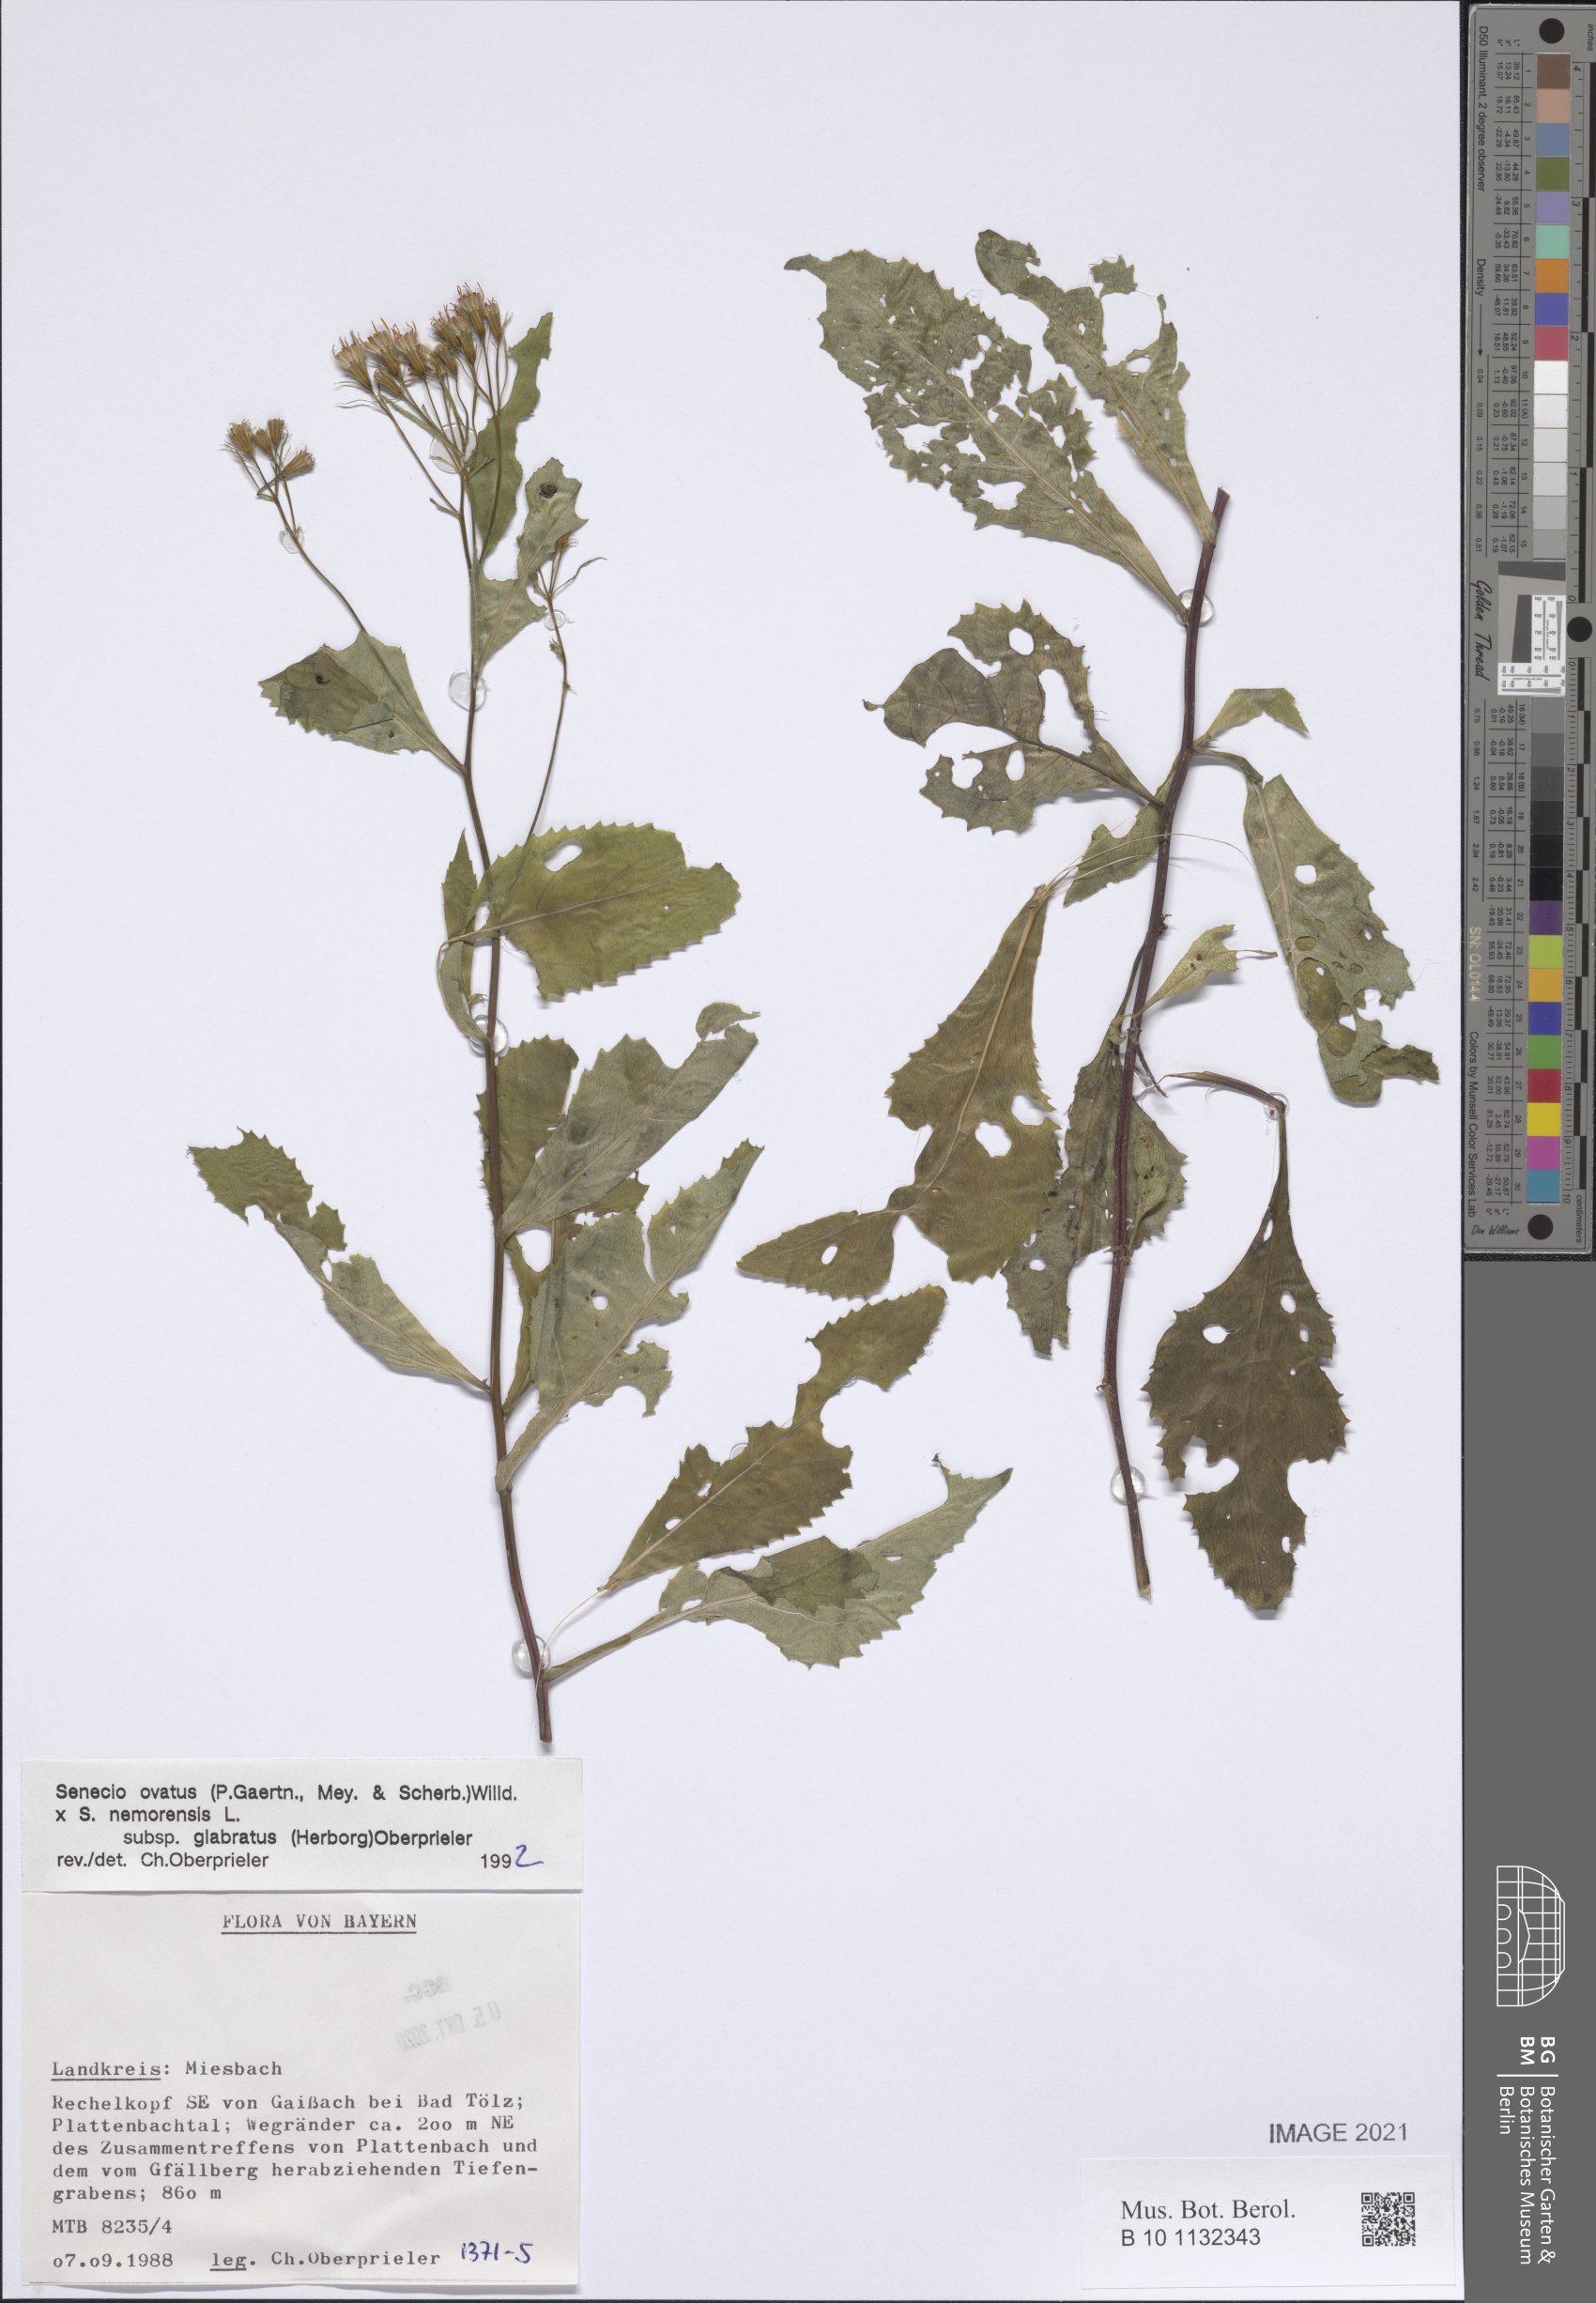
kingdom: Plantae
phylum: Tracheophyta
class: Magnoliopsida
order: Asterales
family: Asteraceae
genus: Senecio
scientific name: Senecio ovatus
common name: Wood ragwort
